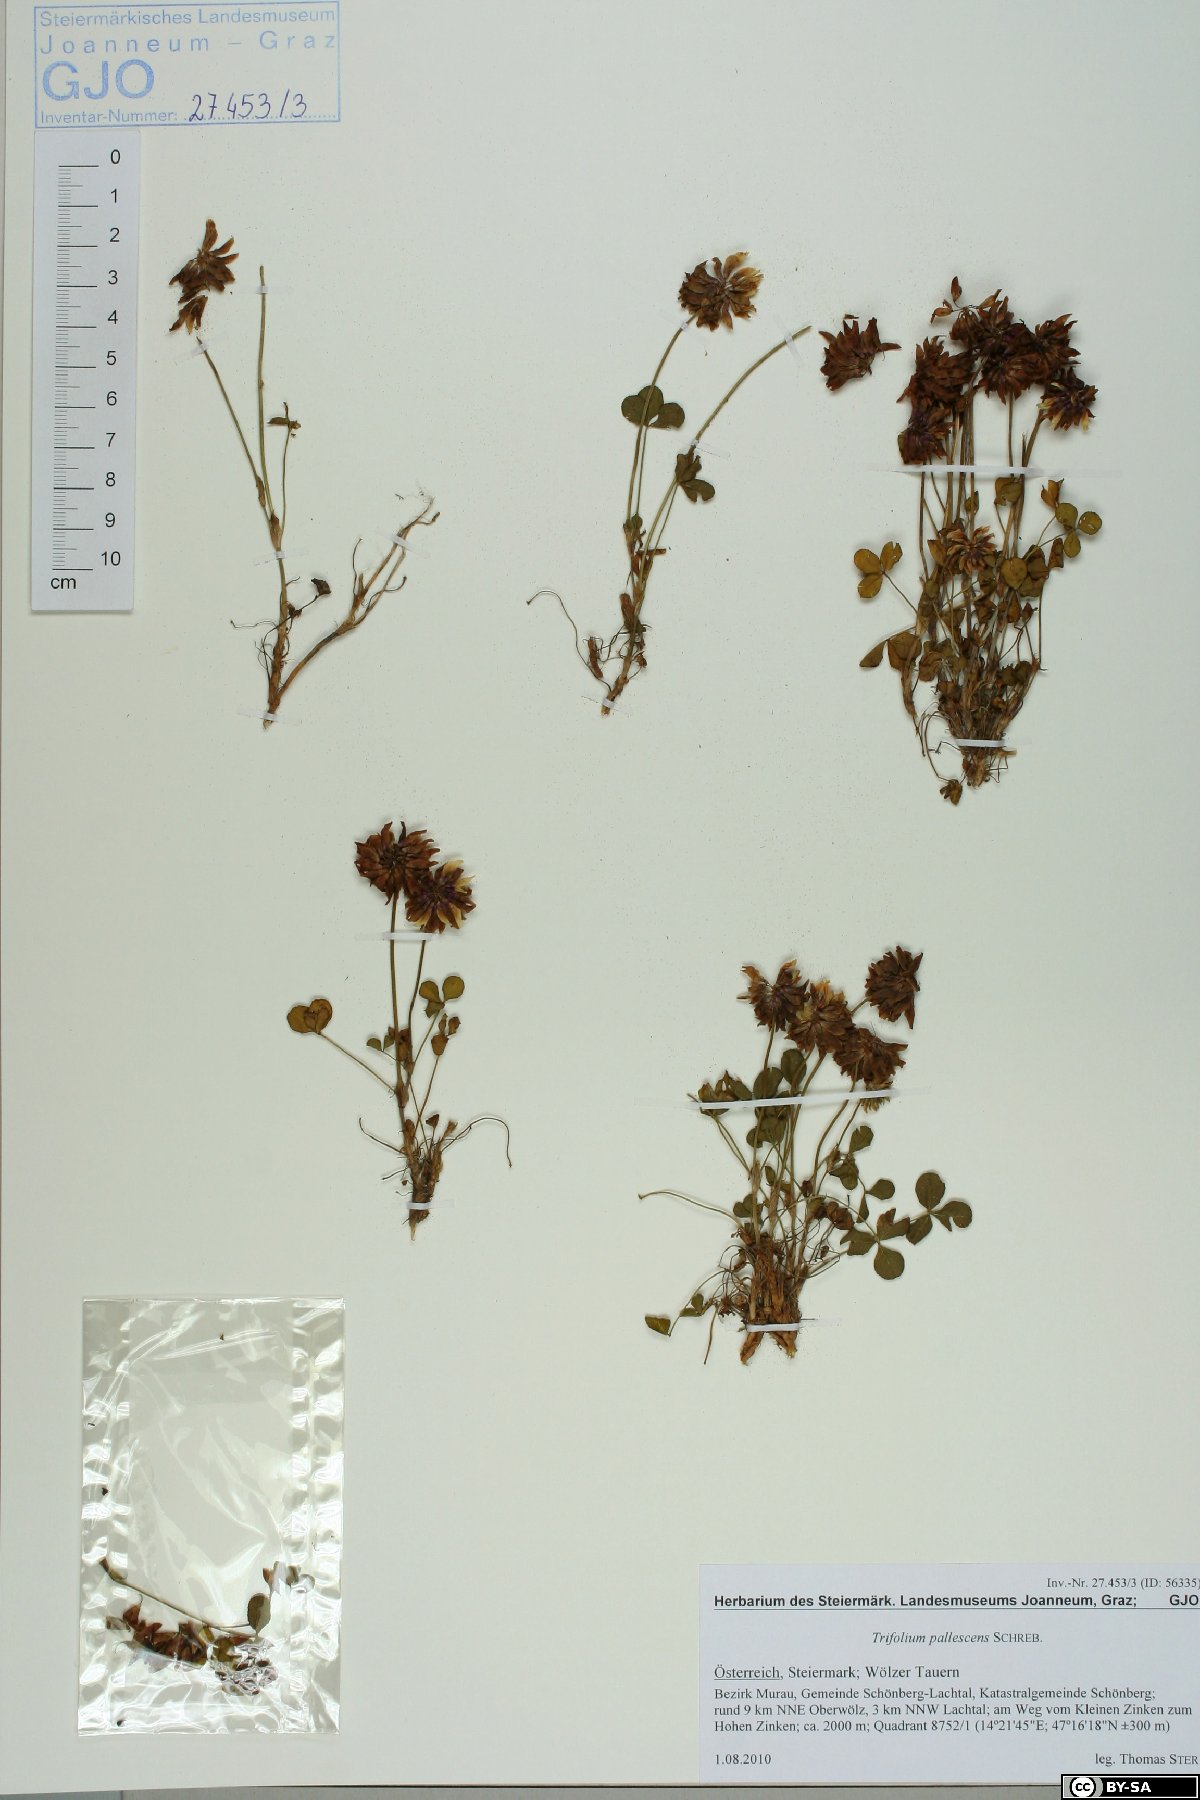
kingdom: Plantae
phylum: Tracheophyta
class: Magnoliopsida
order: Fabales
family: Fabaceae
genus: Trifolium
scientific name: Trifolium pallescens
